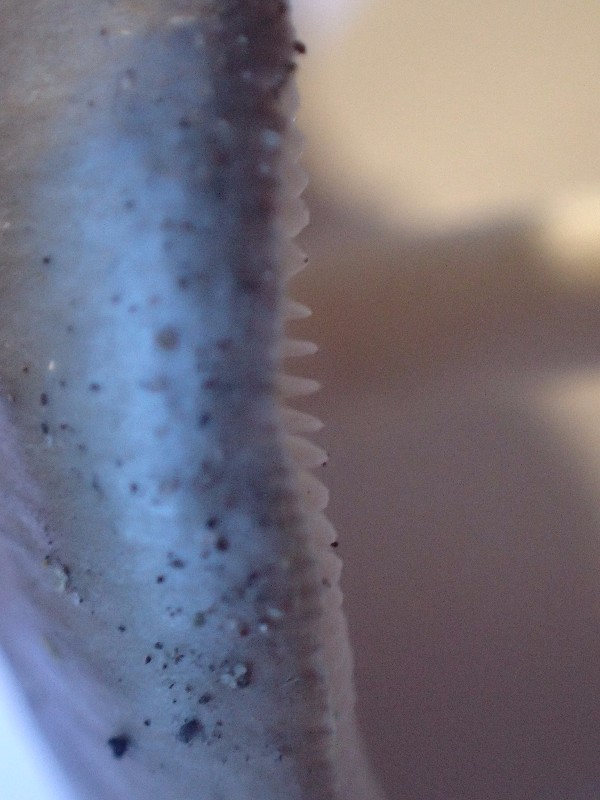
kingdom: Fungi
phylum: Basidiomycota
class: Agaricomycetes
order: Agaricales
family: Pluteaceae
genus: Pluteus
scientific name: Pluteus
